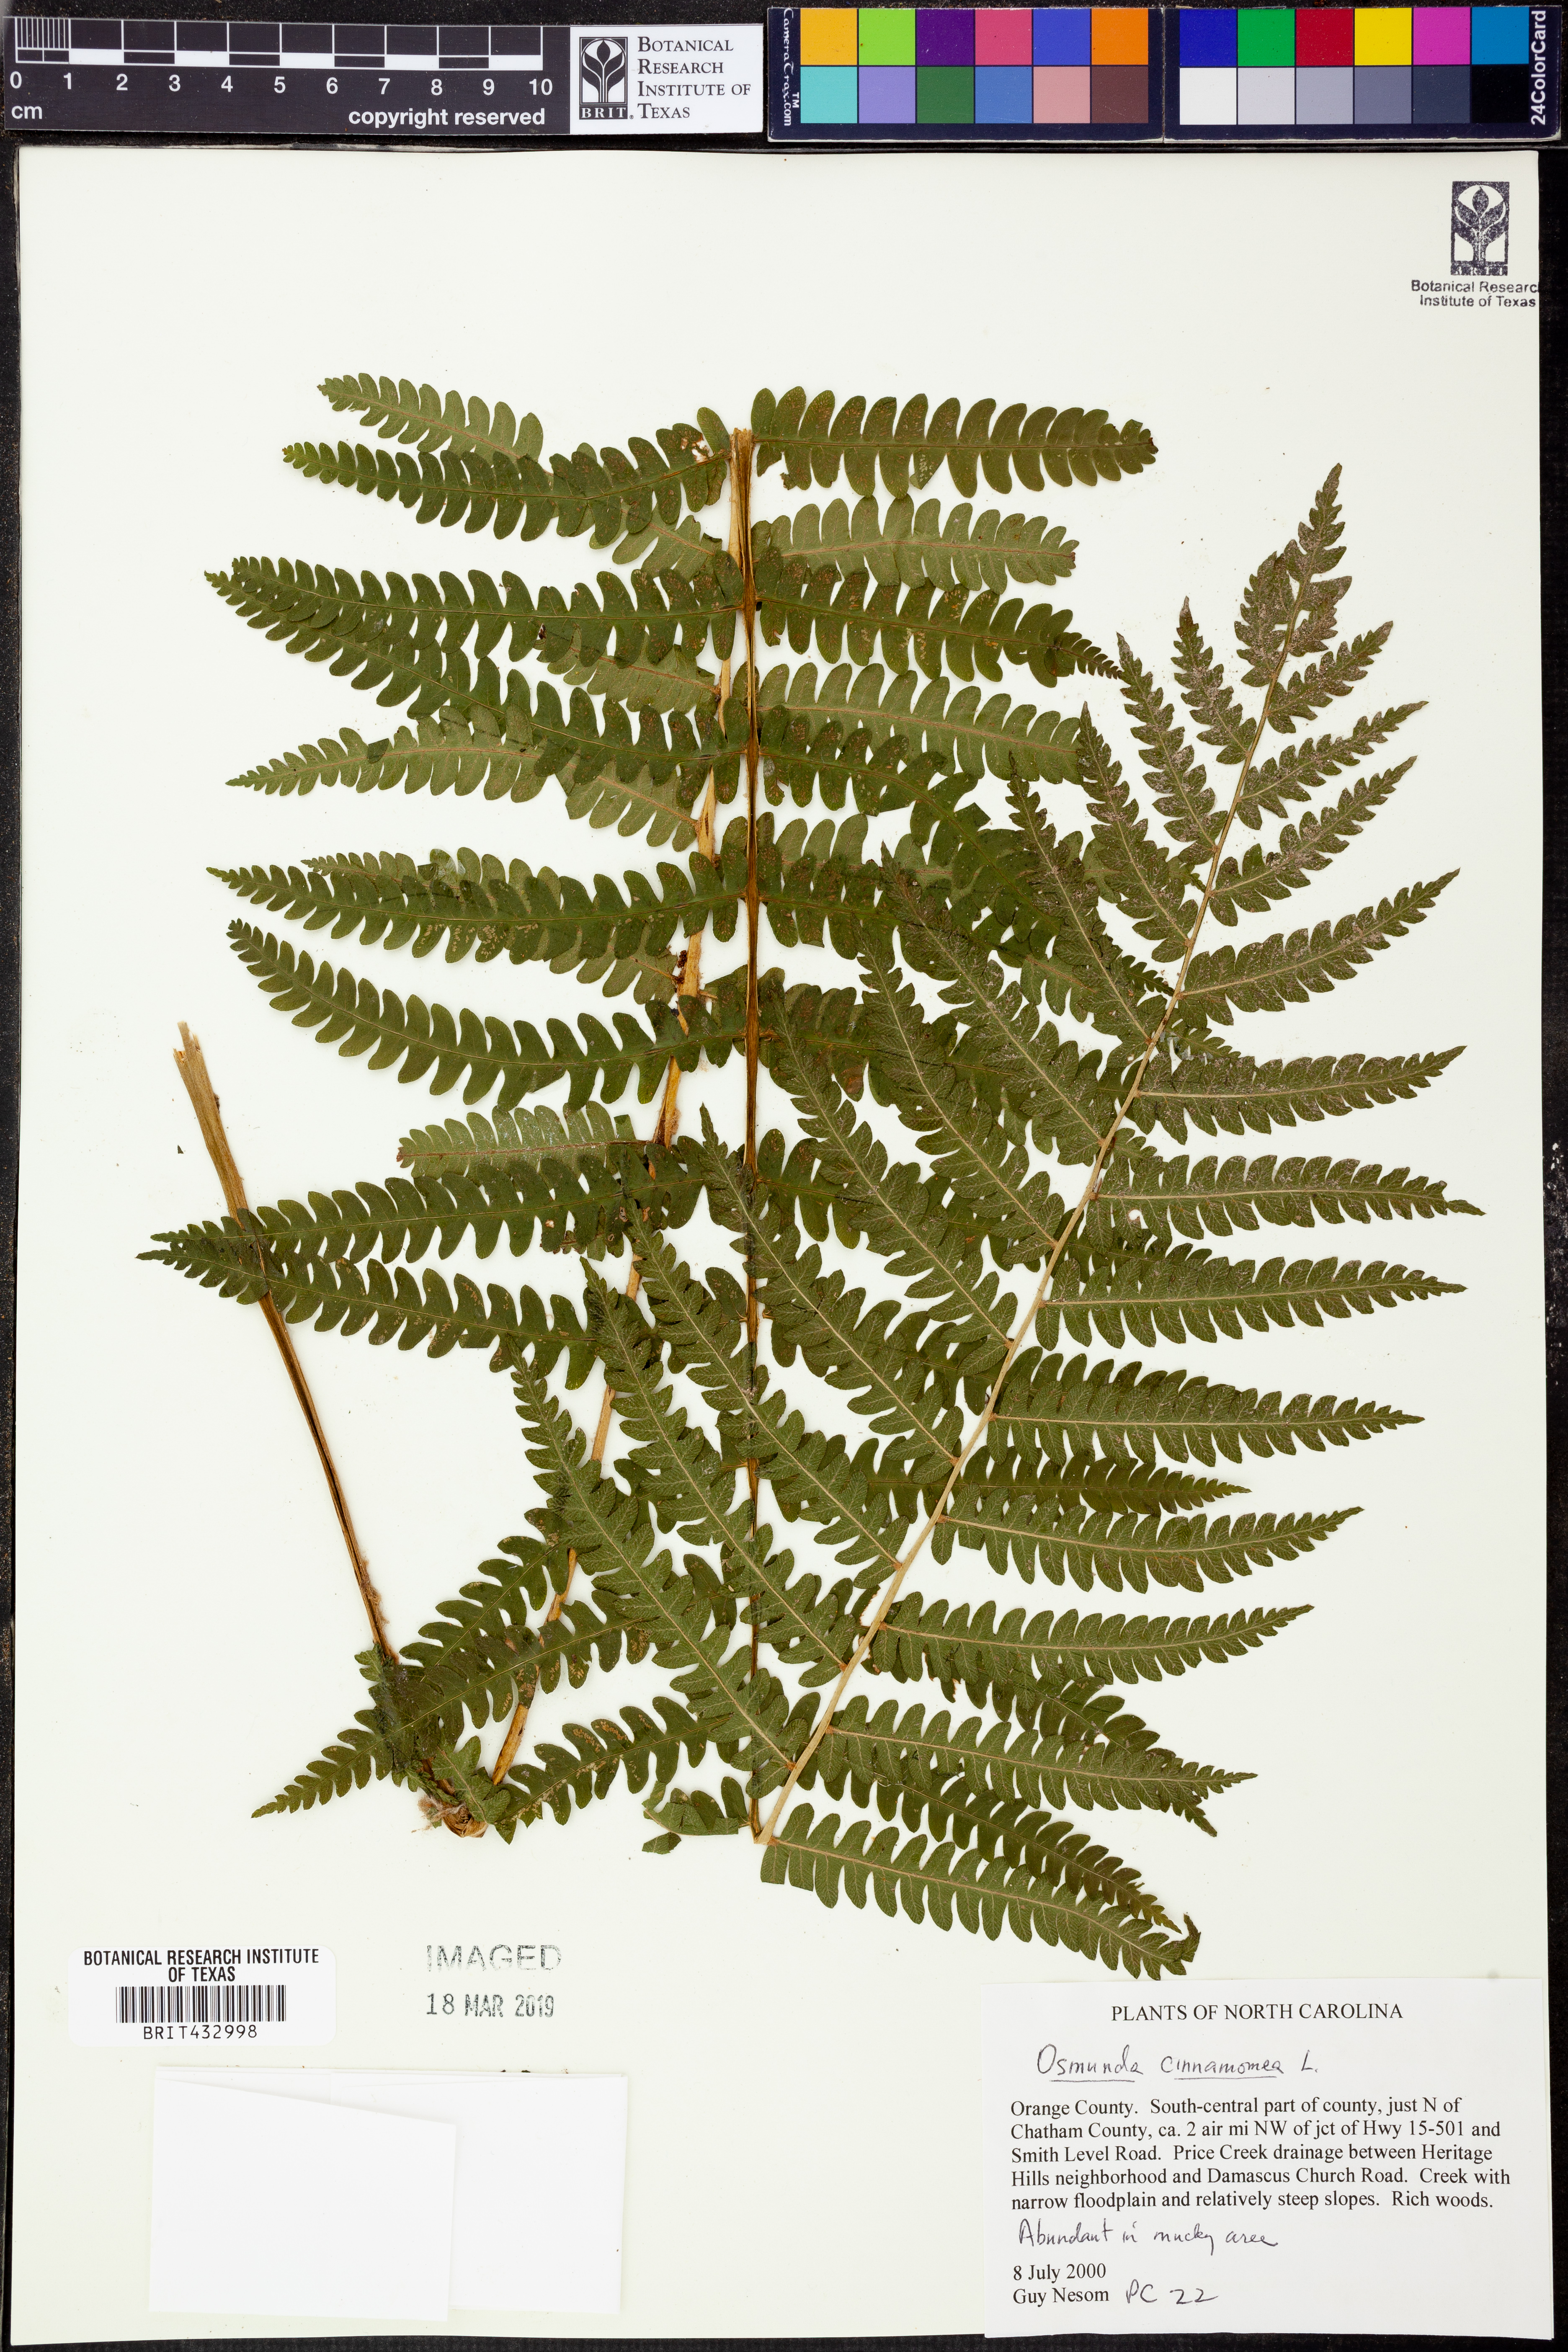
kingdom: Plantae
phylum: Tracheophyta
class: Polypodiopsida
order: Osmundales
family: Osmundaceae
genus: Osmundastrum
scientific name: Osmundastrum cinnamomeum
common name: Cinnamon fern
